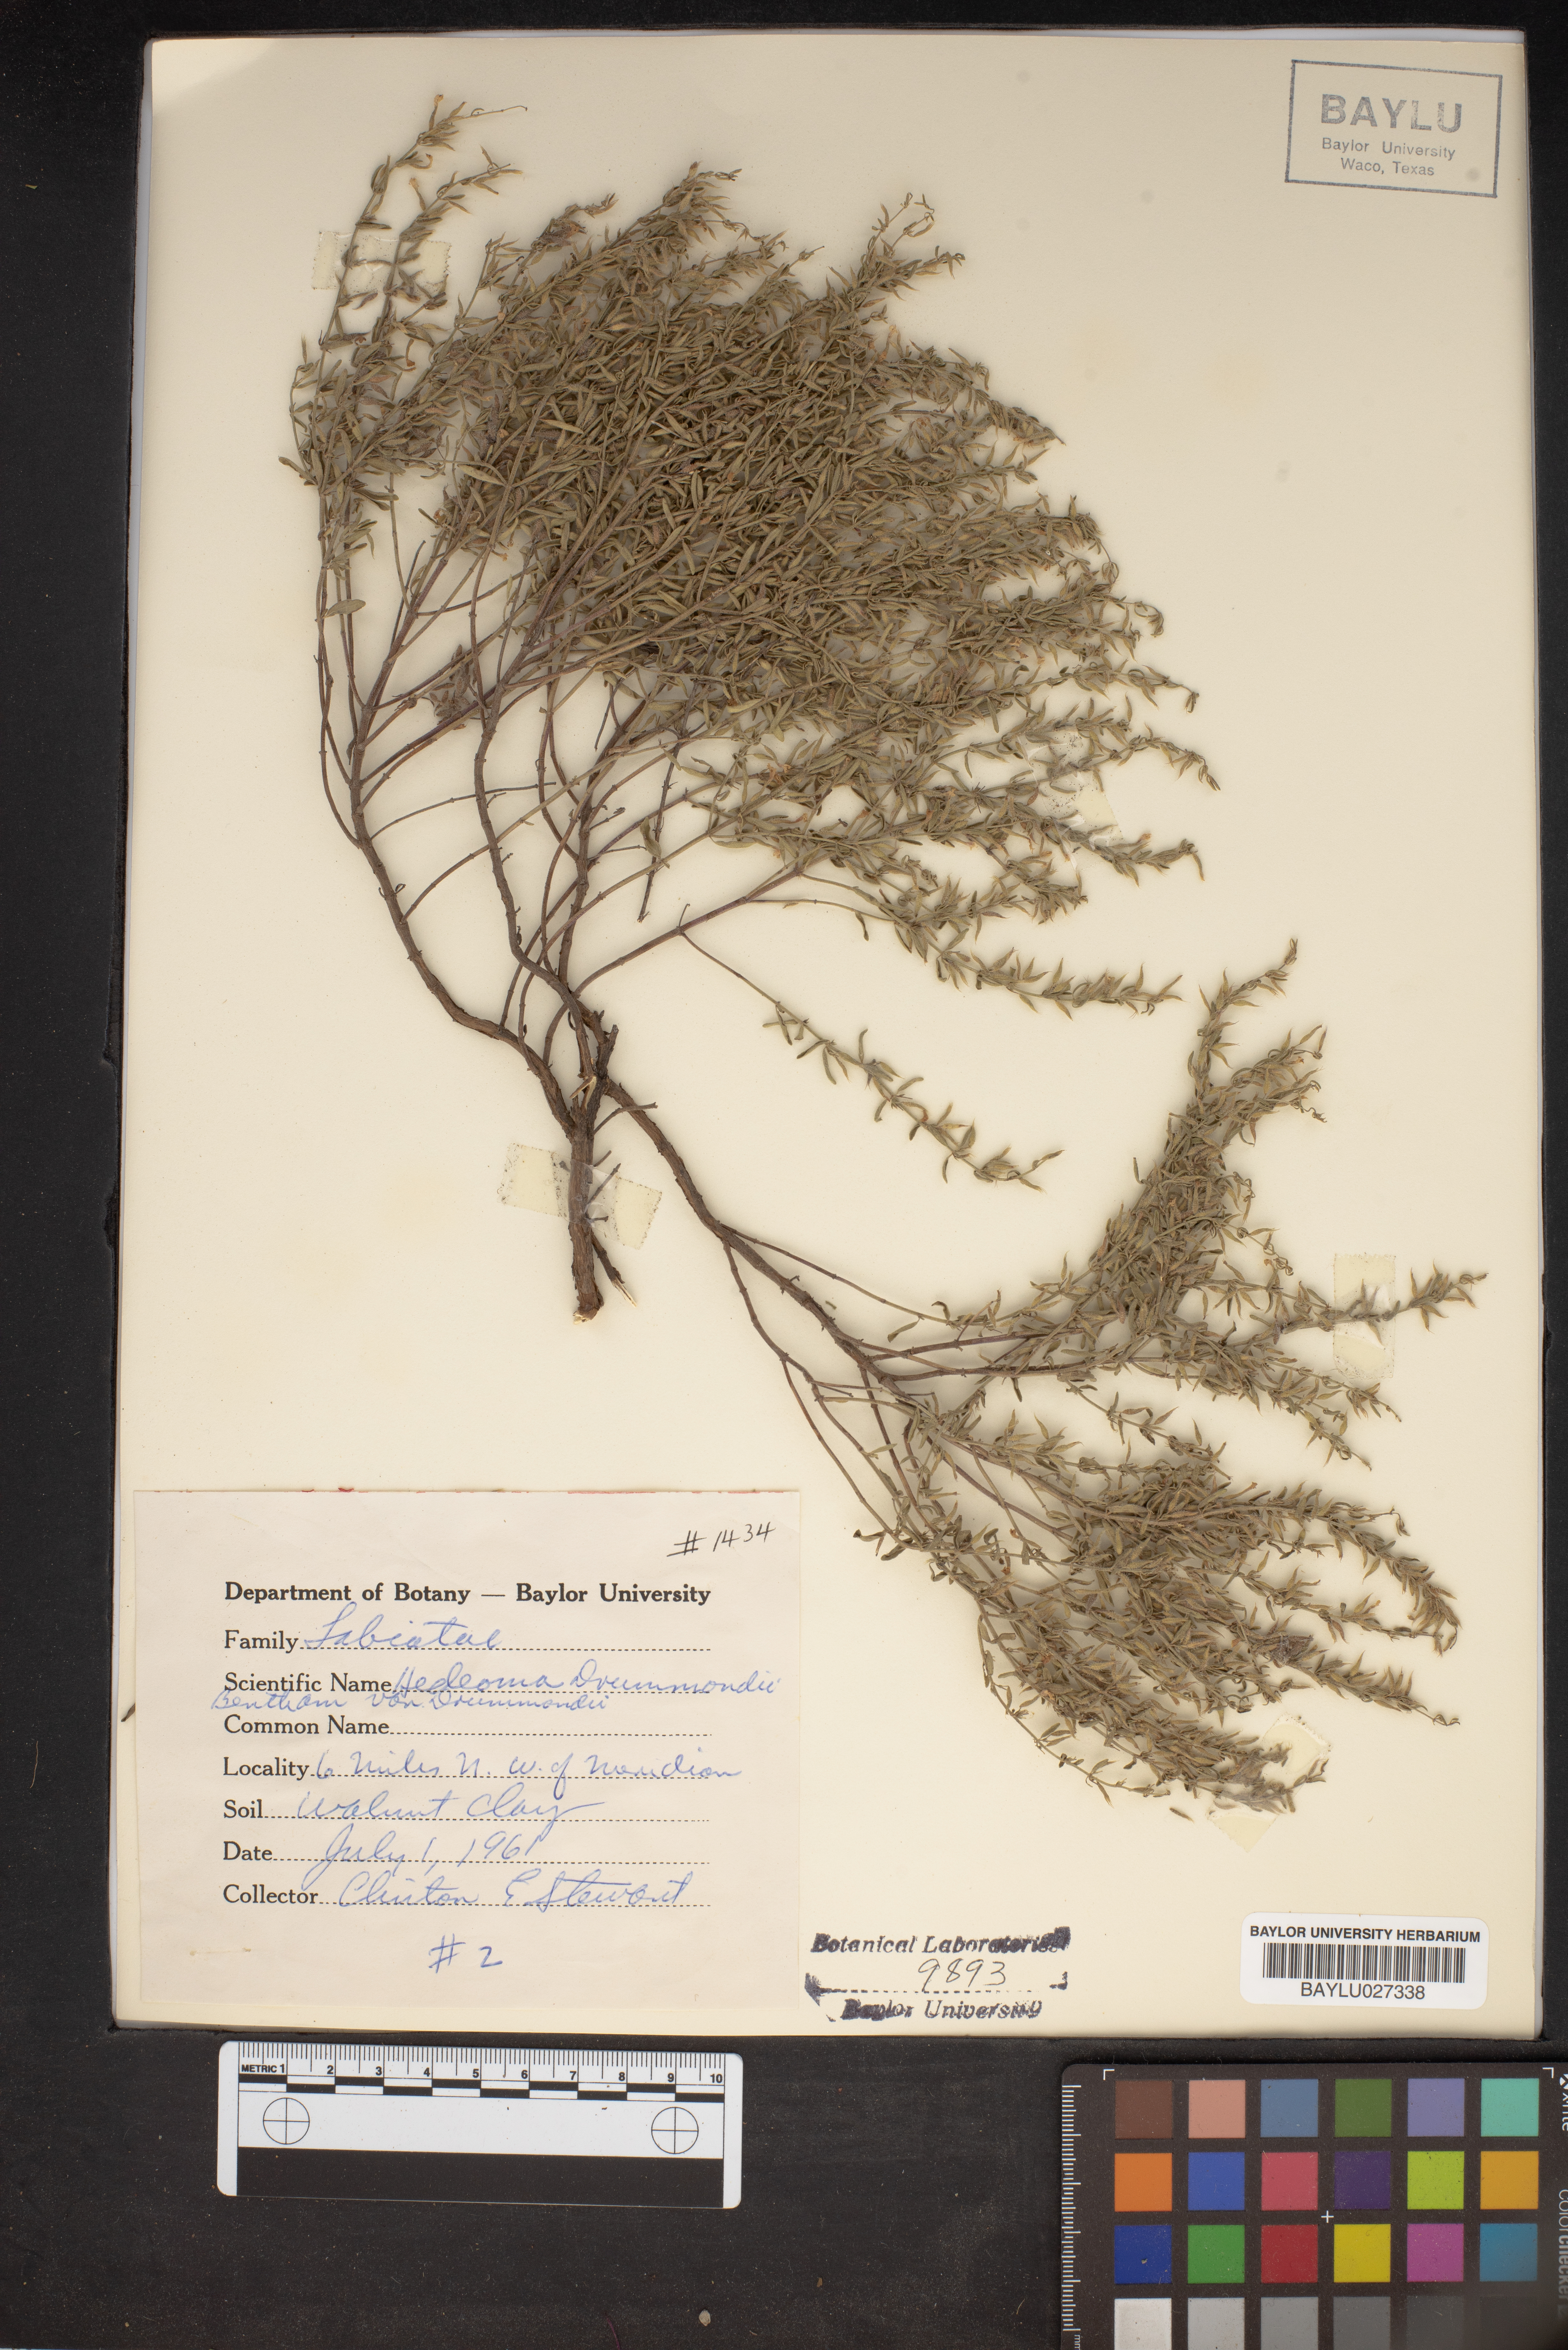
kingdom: Plantae
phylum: Tracheophyta
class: Magnoliopsida
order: Lamiales
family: Lamiaceae
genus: Hedeoma
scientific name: Hedeoma drummondii
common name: New mexico pennyroyal
